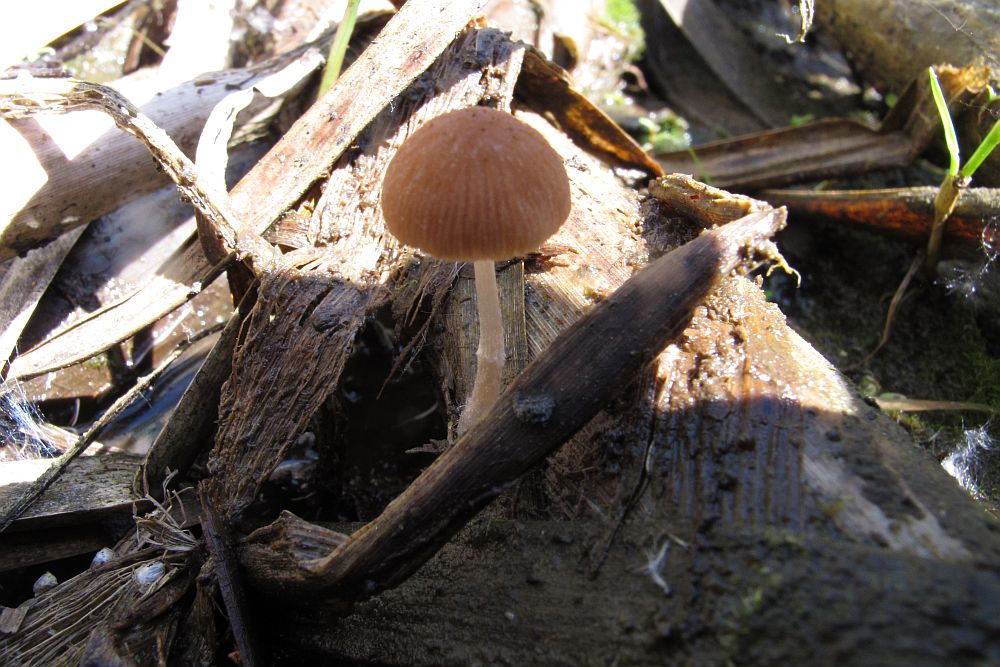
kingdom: Fungi
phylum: Basidiomycota
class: Agaricomycetes
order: Agaricales
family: Psathyrellaceae
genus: Candolleomyces
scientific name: Candolleomyces typhae
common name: dunhammer-mørkhat
